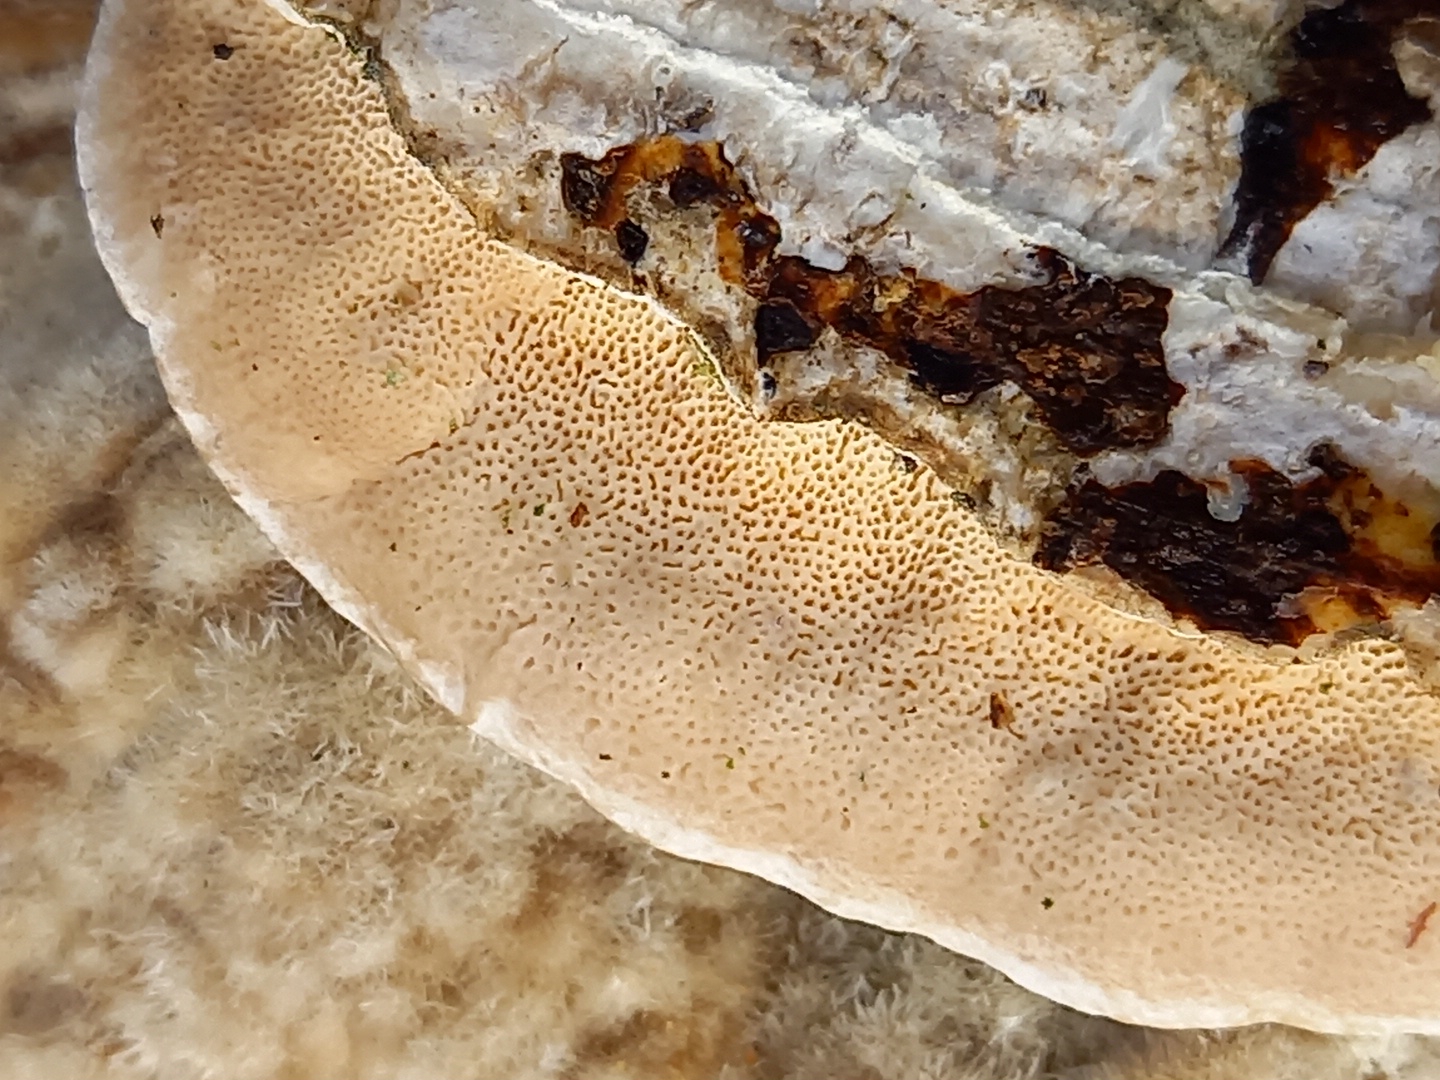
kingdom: Fungi
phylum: Basidiomycota
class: Agaricomycetes
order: Polyporales
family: Polyporaceae
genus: Trametes
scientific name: Trametes hirsuta
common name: håret læderporesvamp
